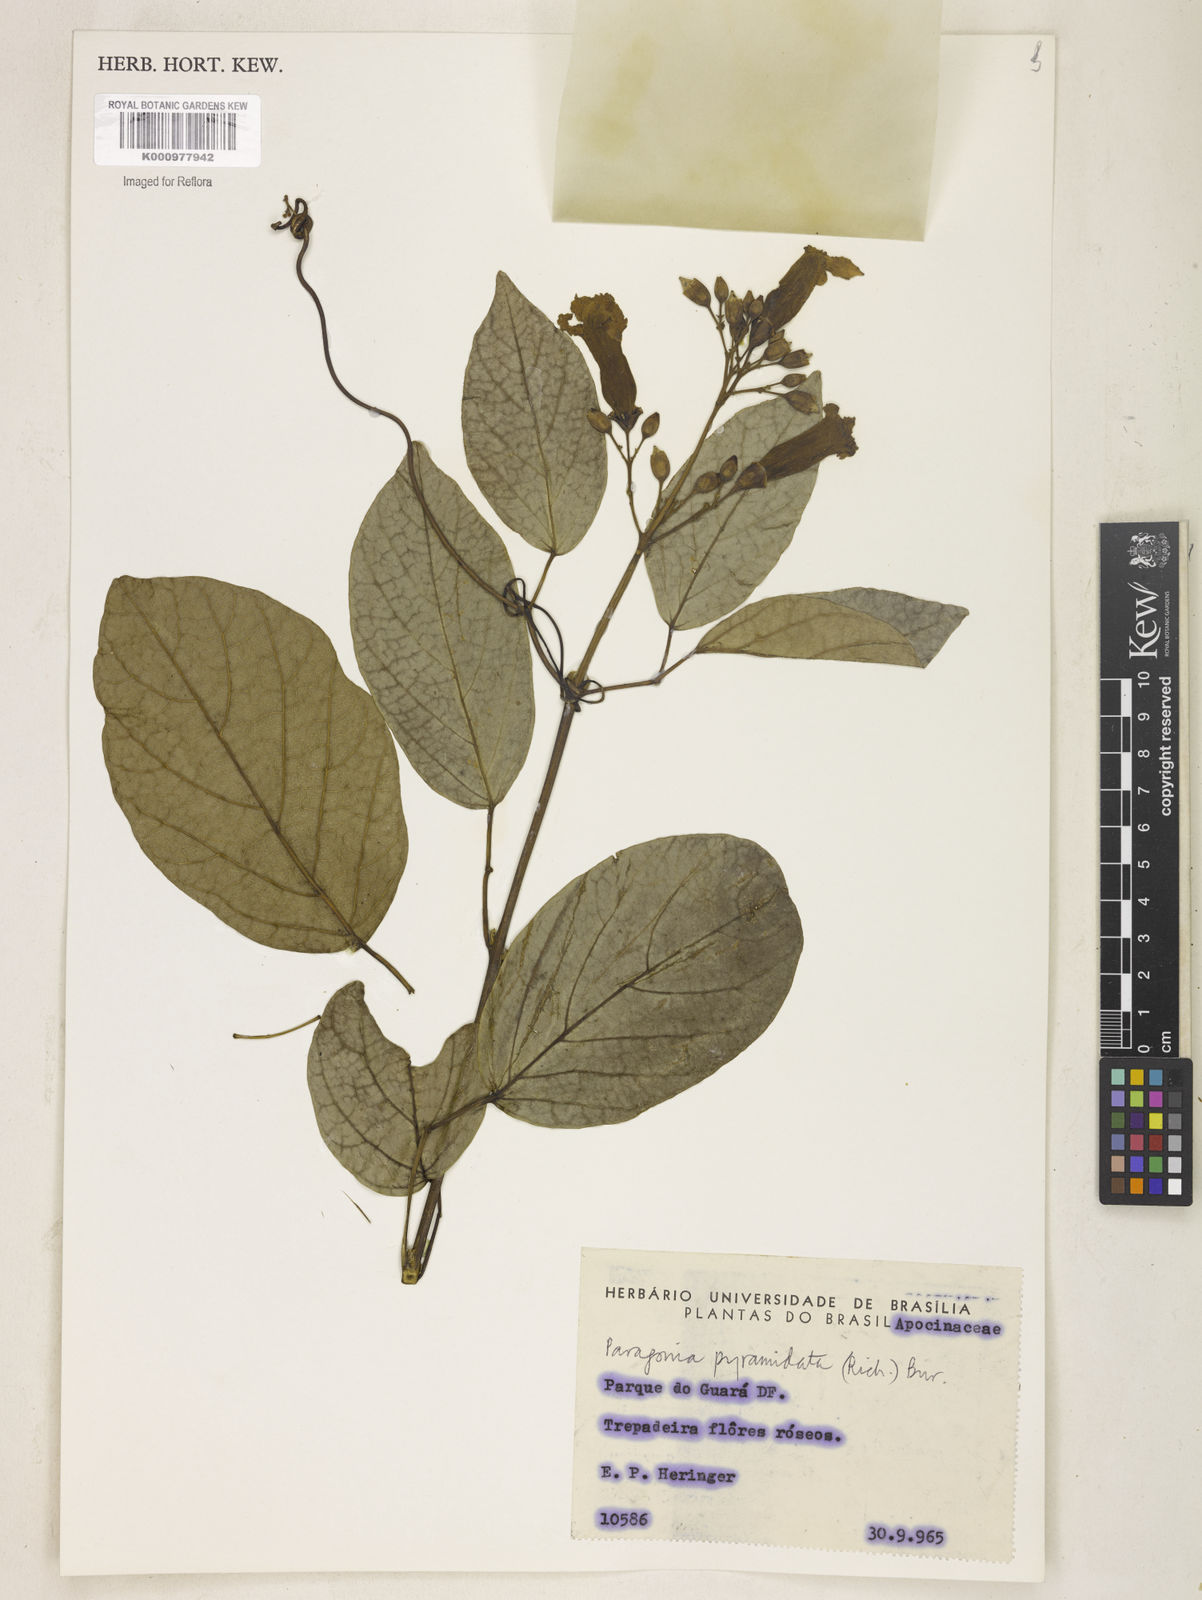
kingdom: Plantae
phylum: Tracheophyta
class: Magnoliopsida
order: Lamiales
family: Bignoniaceae
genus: Tanaecium
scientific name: Tanaecium pyramidatum
